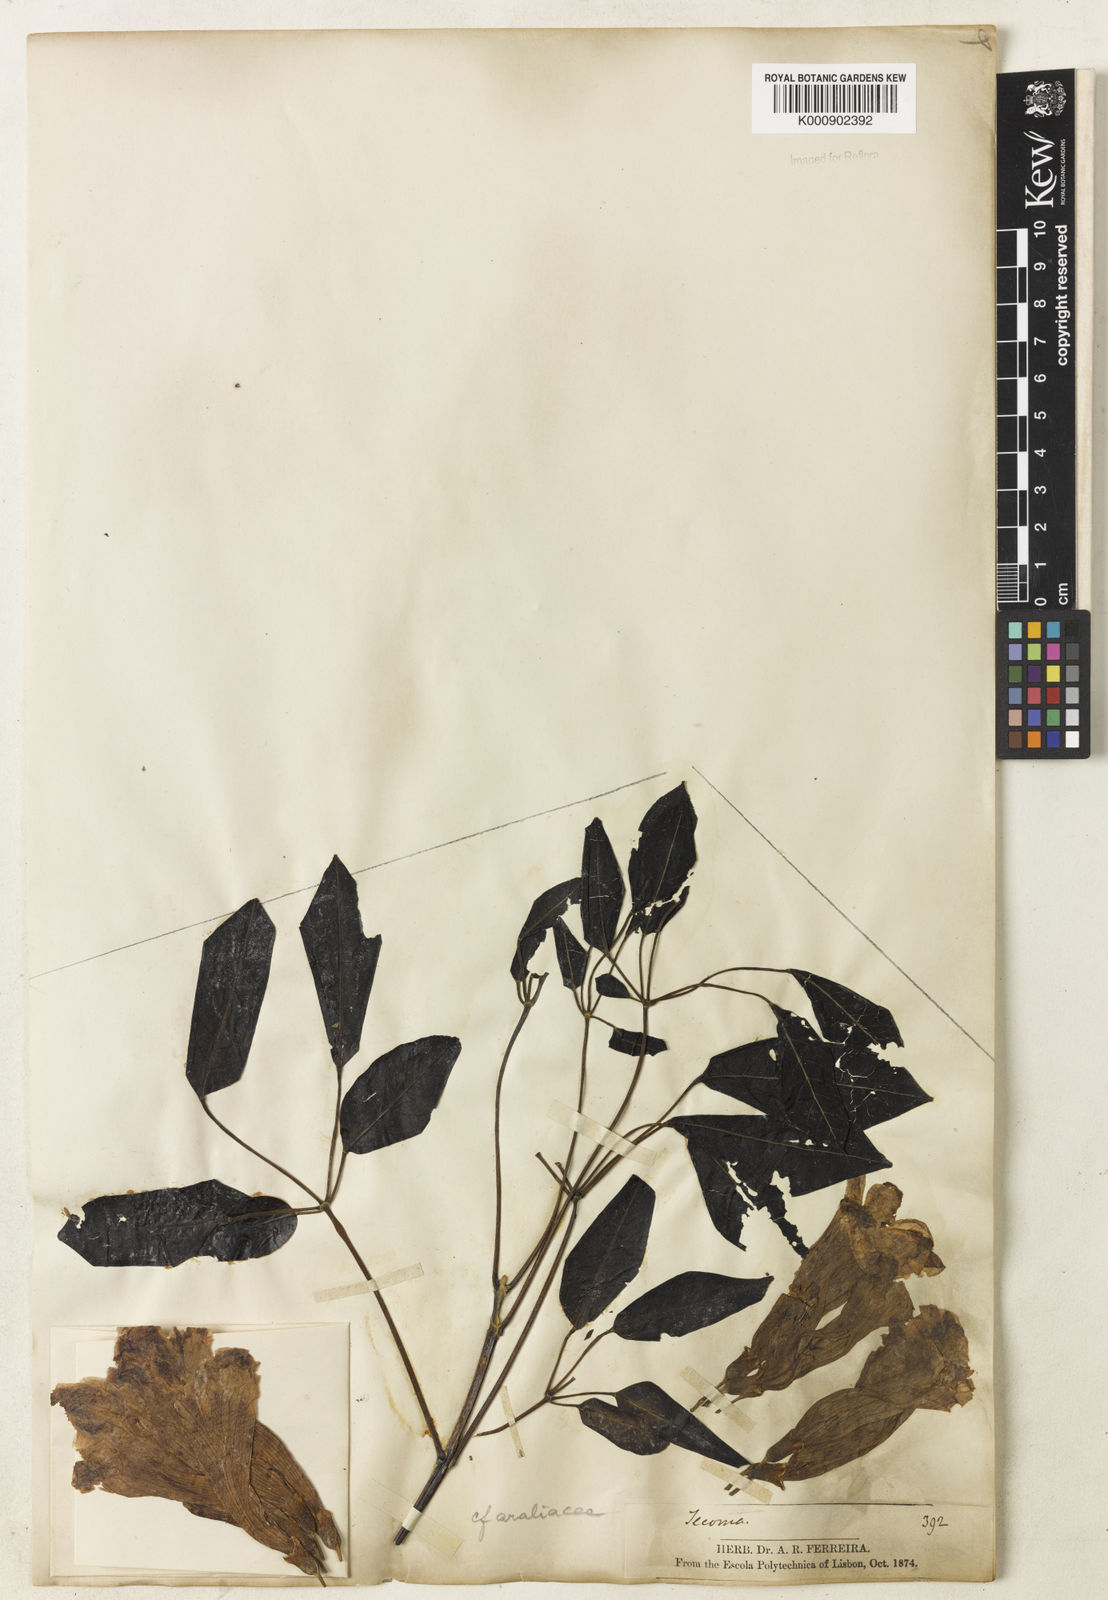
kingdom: Plantae
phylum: Tracheophyta
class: Magnoliopsida
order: Lamiales
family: Bignoniaceae
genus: Handroanthus
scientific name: Handroanthus serratifolius
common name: Yellow ipe
